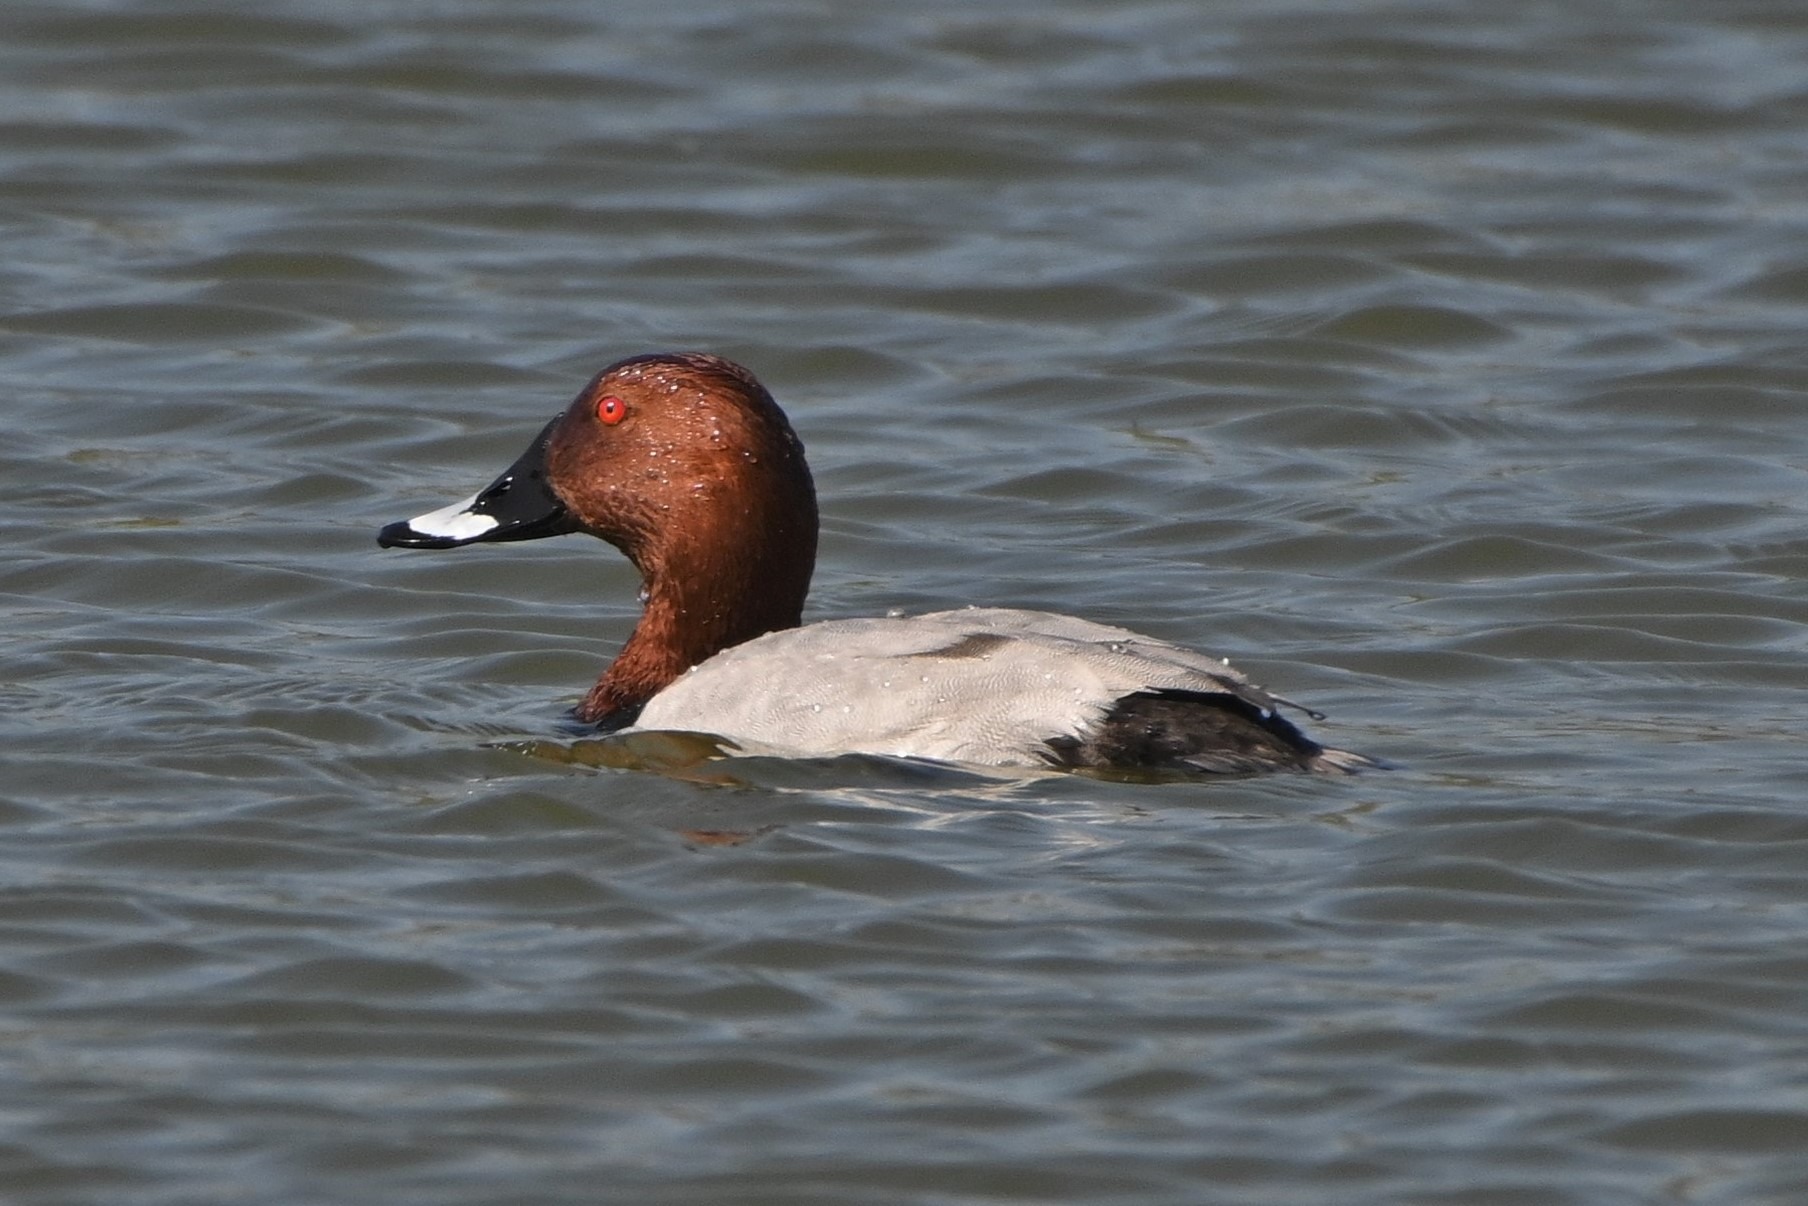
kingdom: Animalia
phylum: Chordata
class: Aves
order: Anseriformes
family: Anatidae
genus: Aythya
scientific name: Aythya ferina
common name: Taffeland
